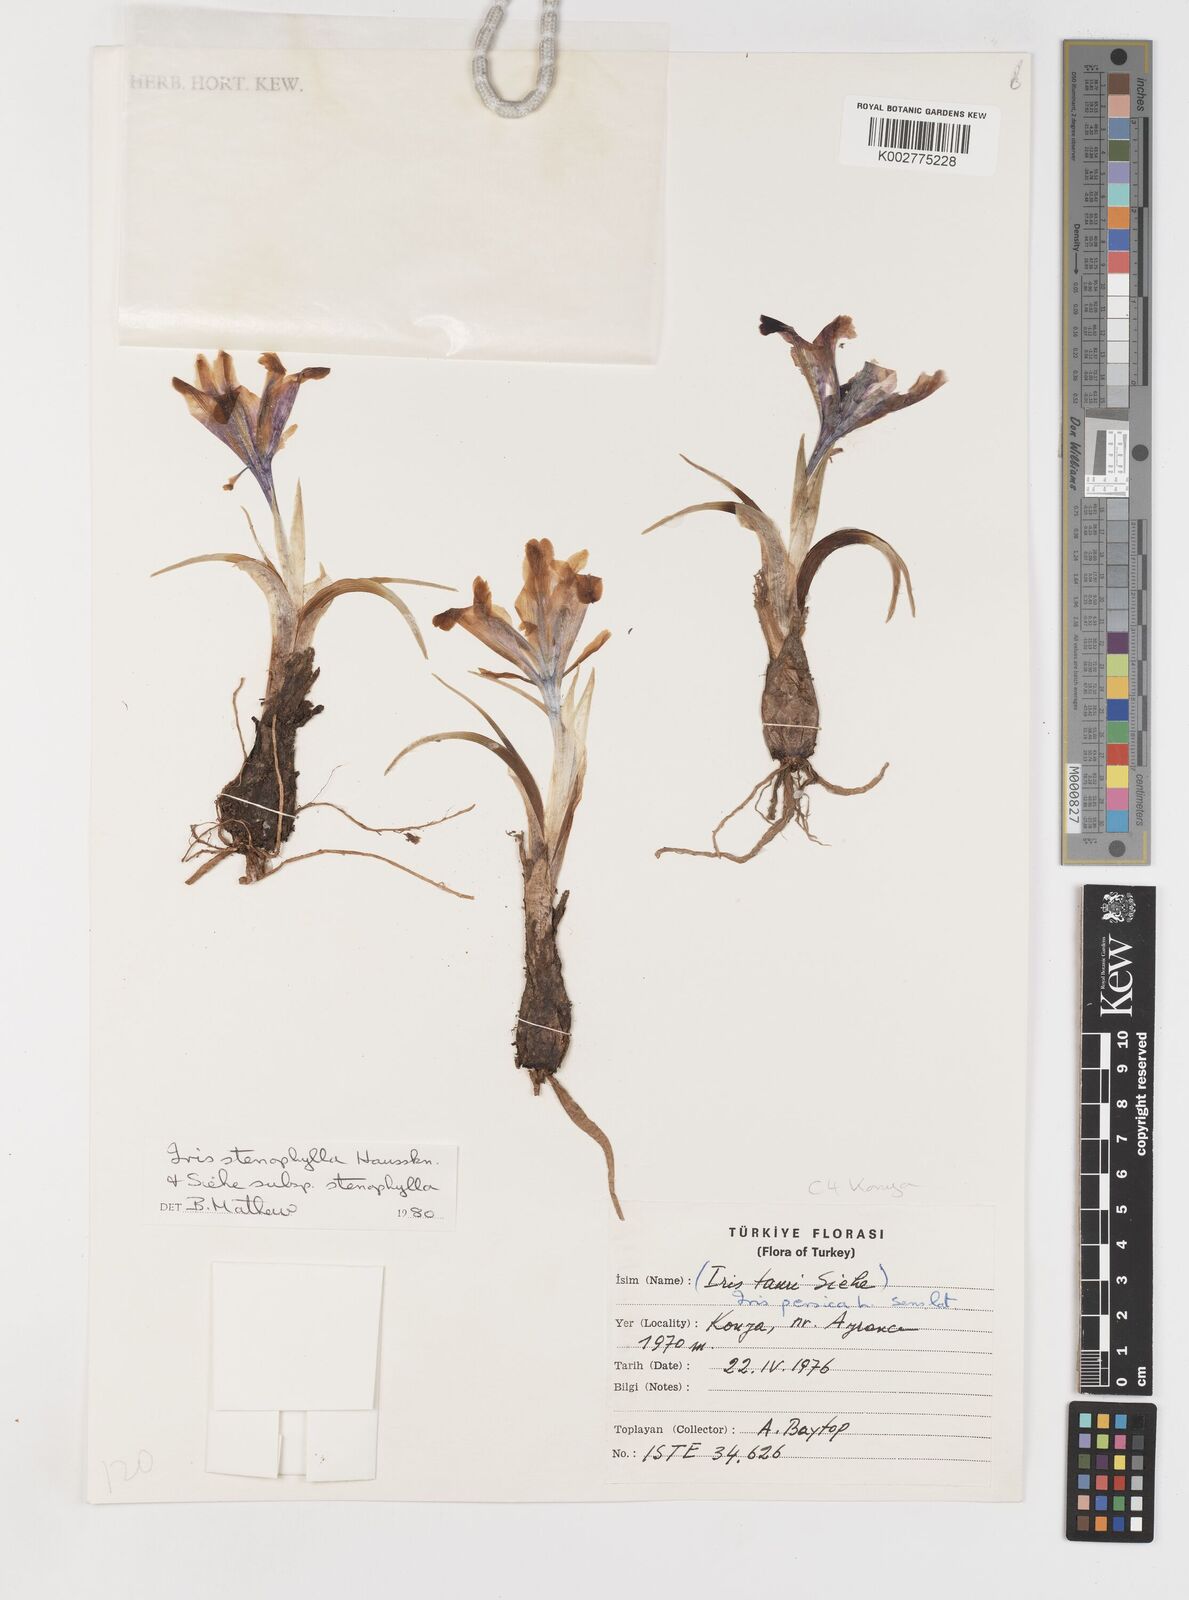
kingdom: Plantae
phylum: Tracheophyta
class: Liliopsida
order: Asparagales
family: Iridaceae
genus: Iris
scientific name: Iris stenophylla
